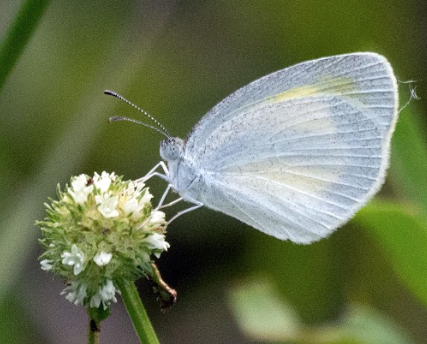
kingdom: Animalia
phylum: Arthropoda
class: Insecta
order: Lepidoptera
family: Pieridae
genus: Eurema
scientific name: Eurema daira
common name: Barred Yellow
